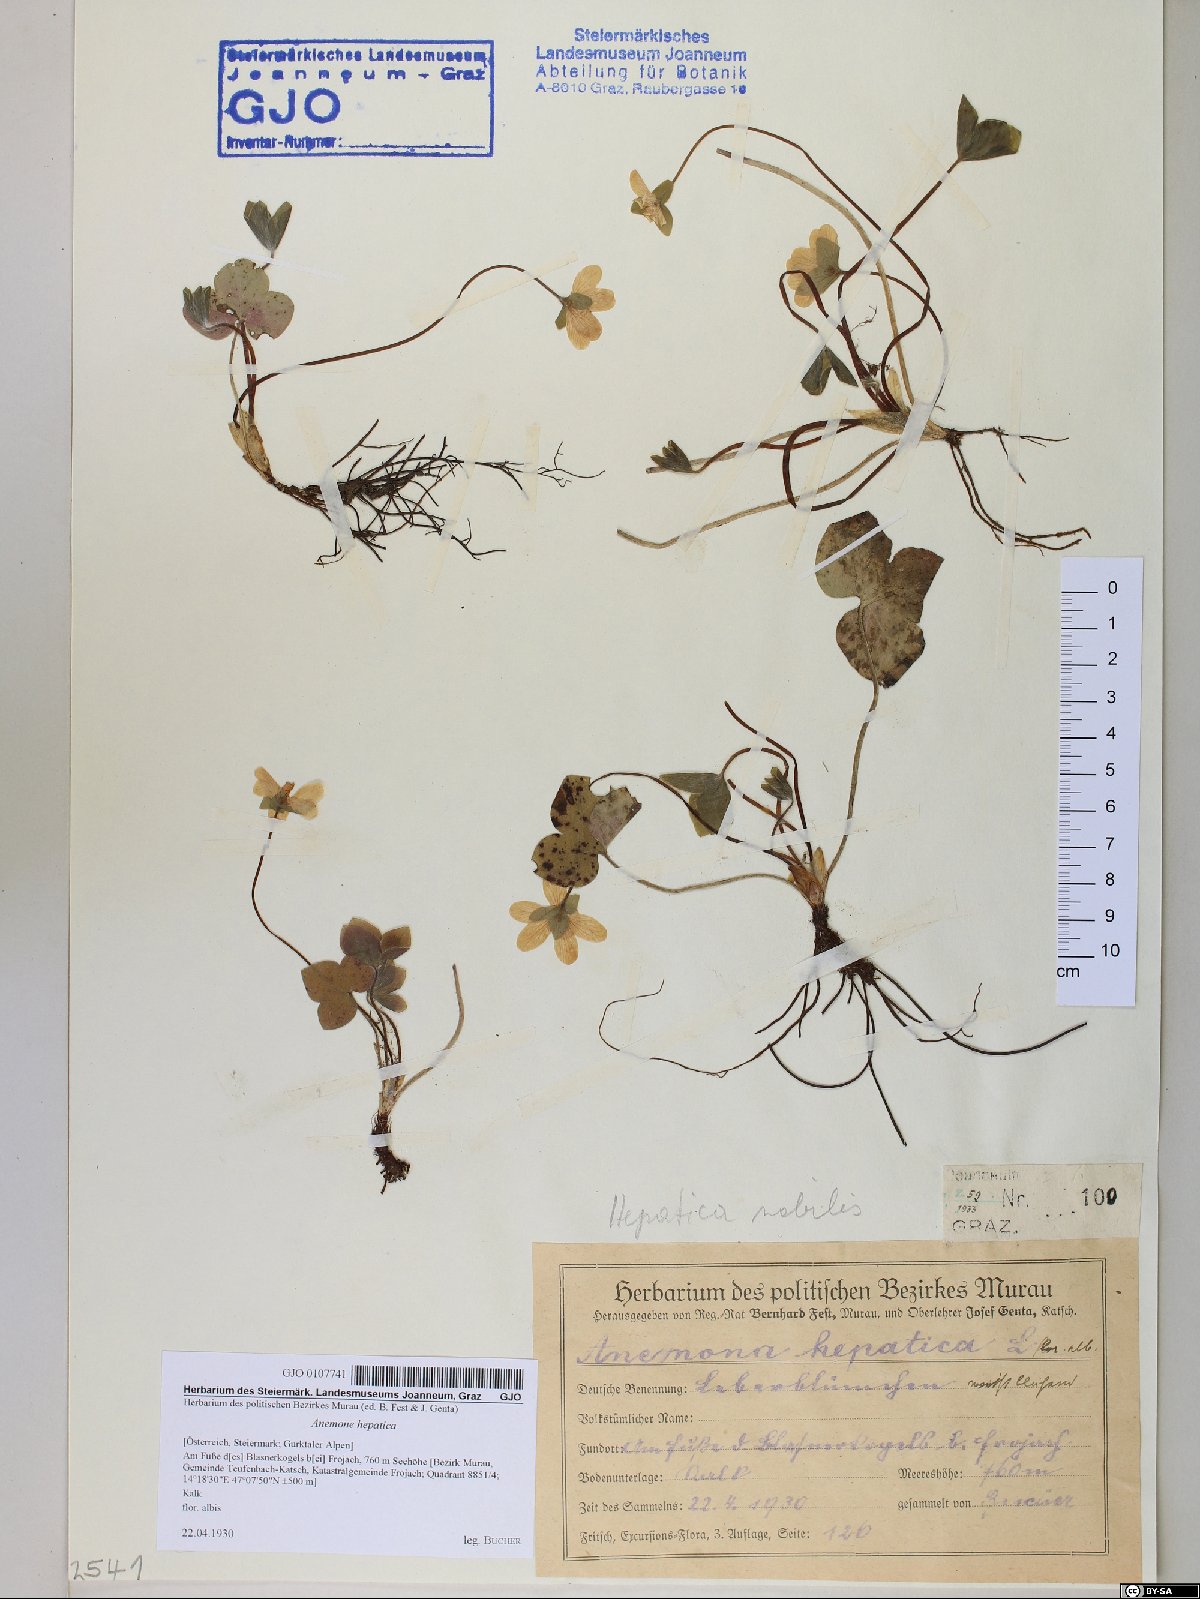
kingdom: Plantae
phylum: Tracheophyta
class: Magnoliopsida
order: Ranunculales
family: Ranunculaceae
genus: Hepatica
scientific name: Hepatica nobilis
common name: Liverleaf
